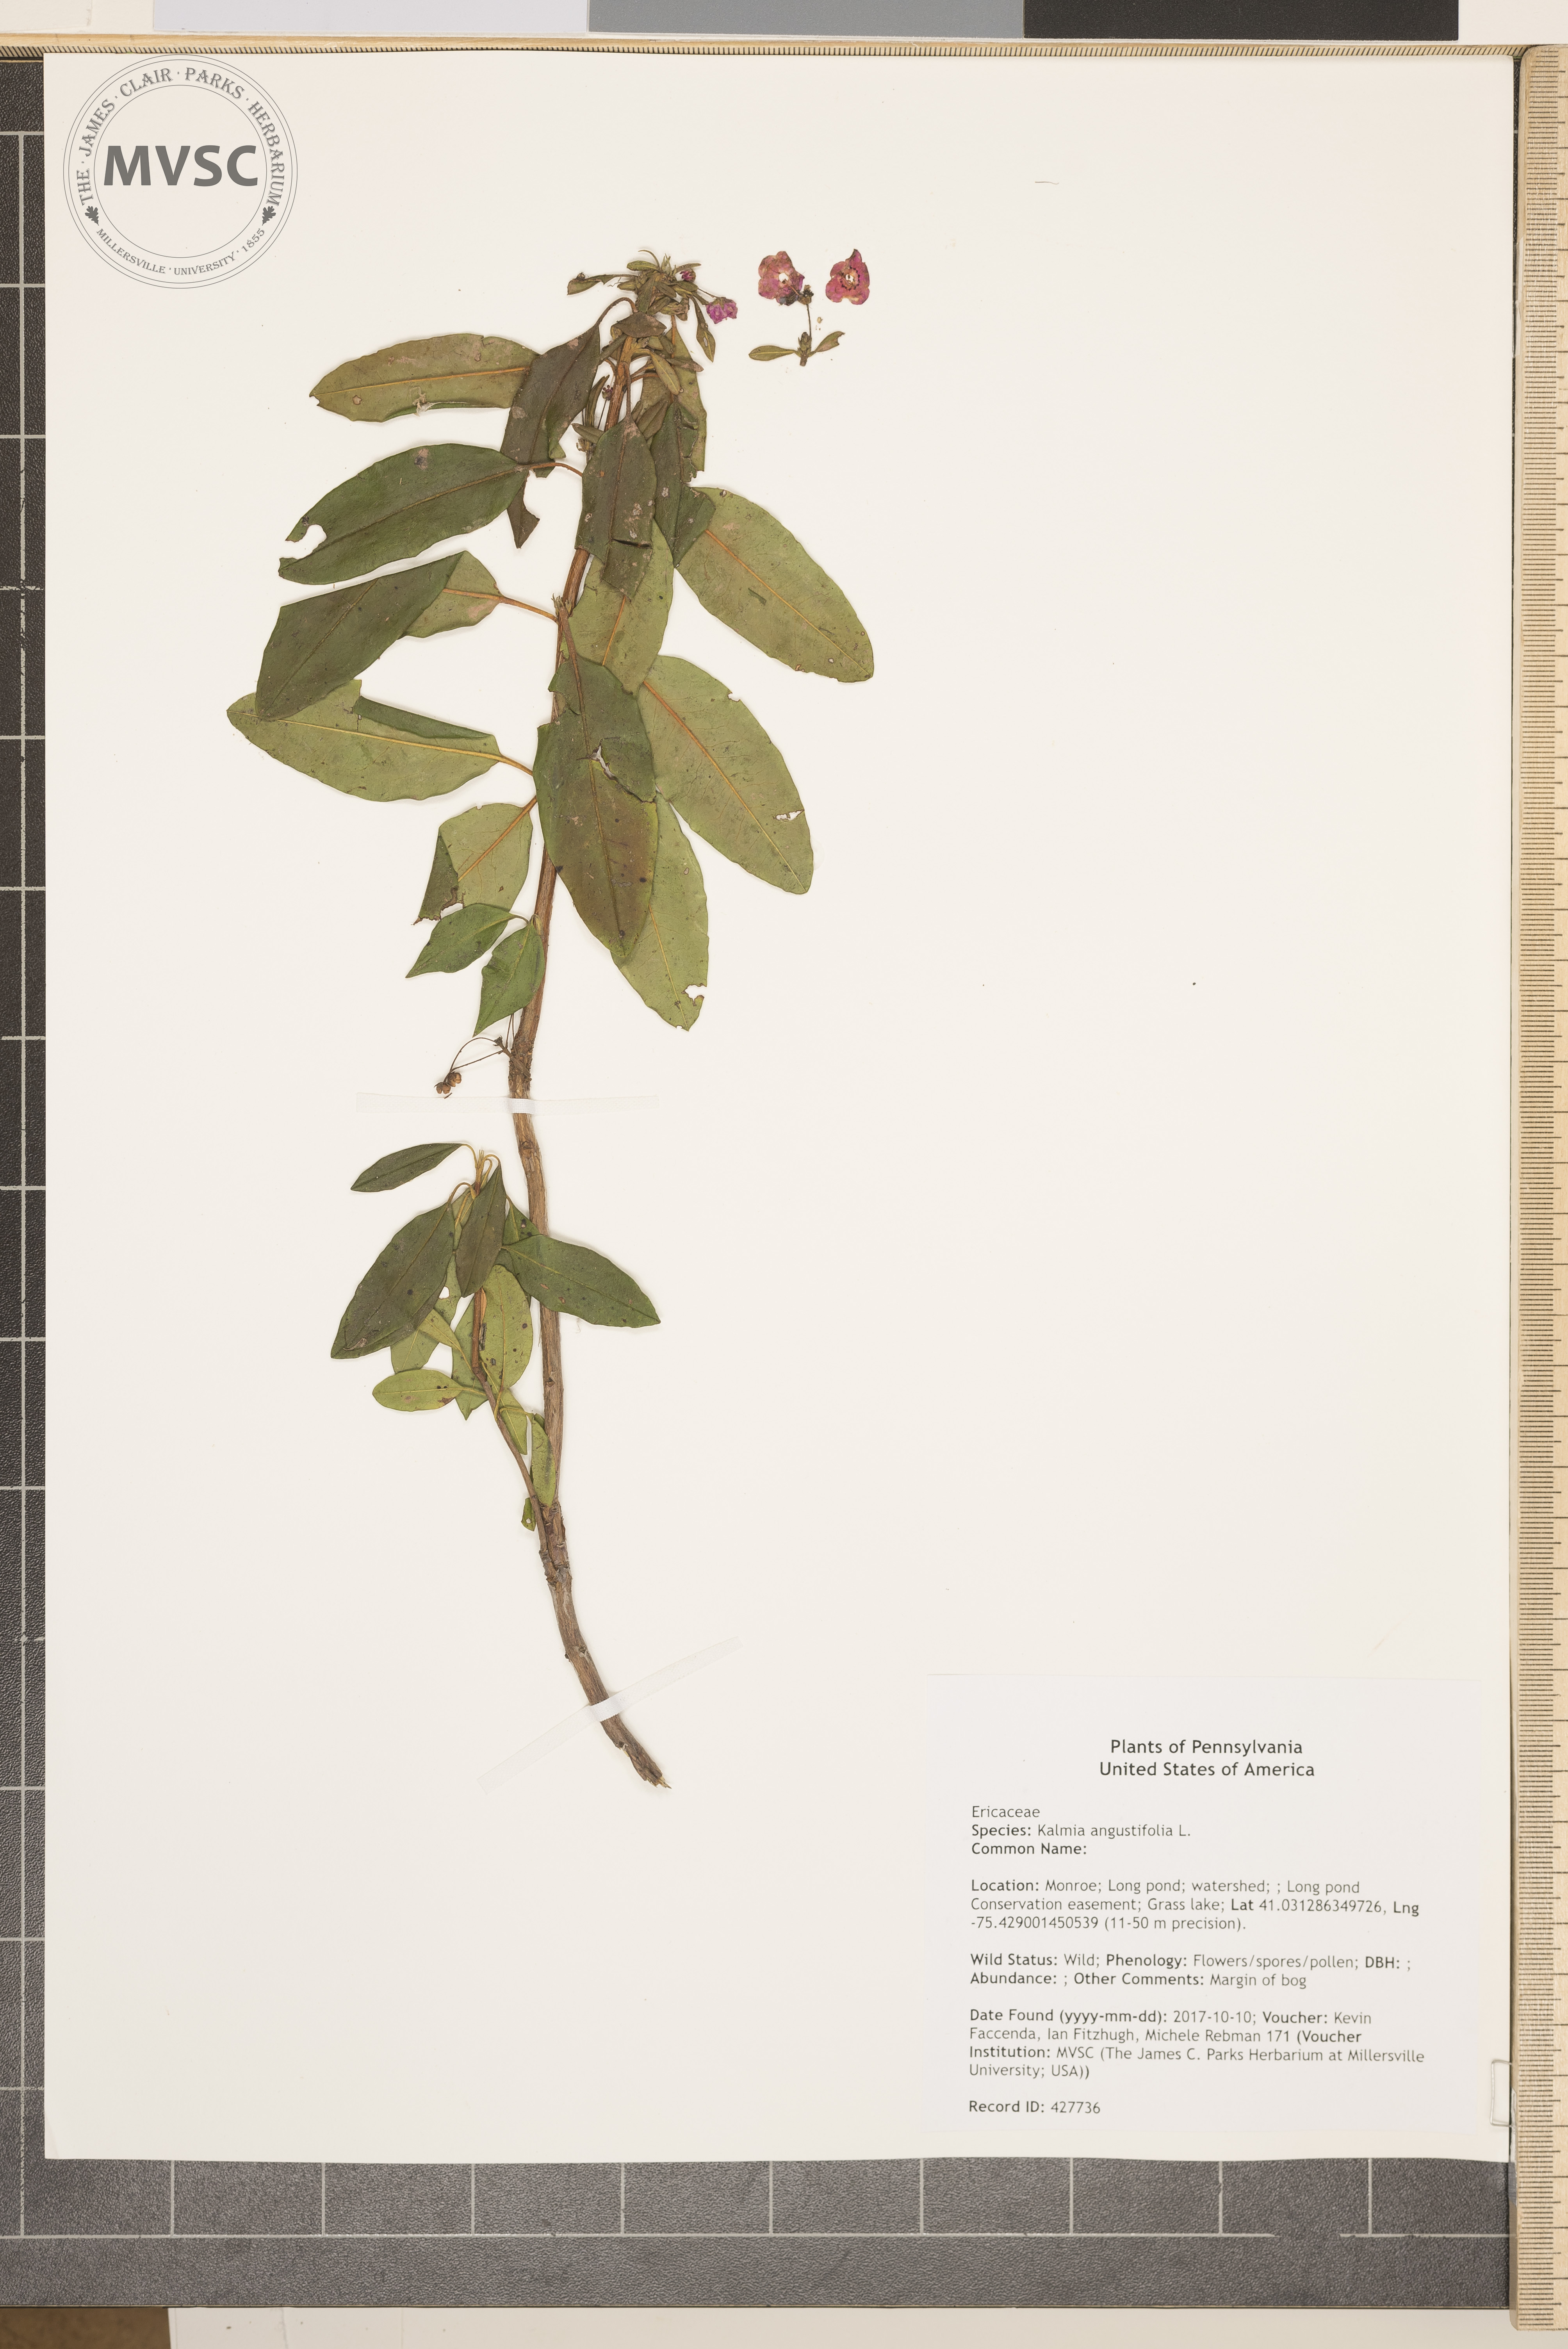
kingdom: Plantae
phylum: Tracheophyta
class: Magnoliopsida
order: Ericales
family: Ericaceae
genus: Kalmia
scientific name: Kalmia angustifolia
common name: Sheep-laurel
